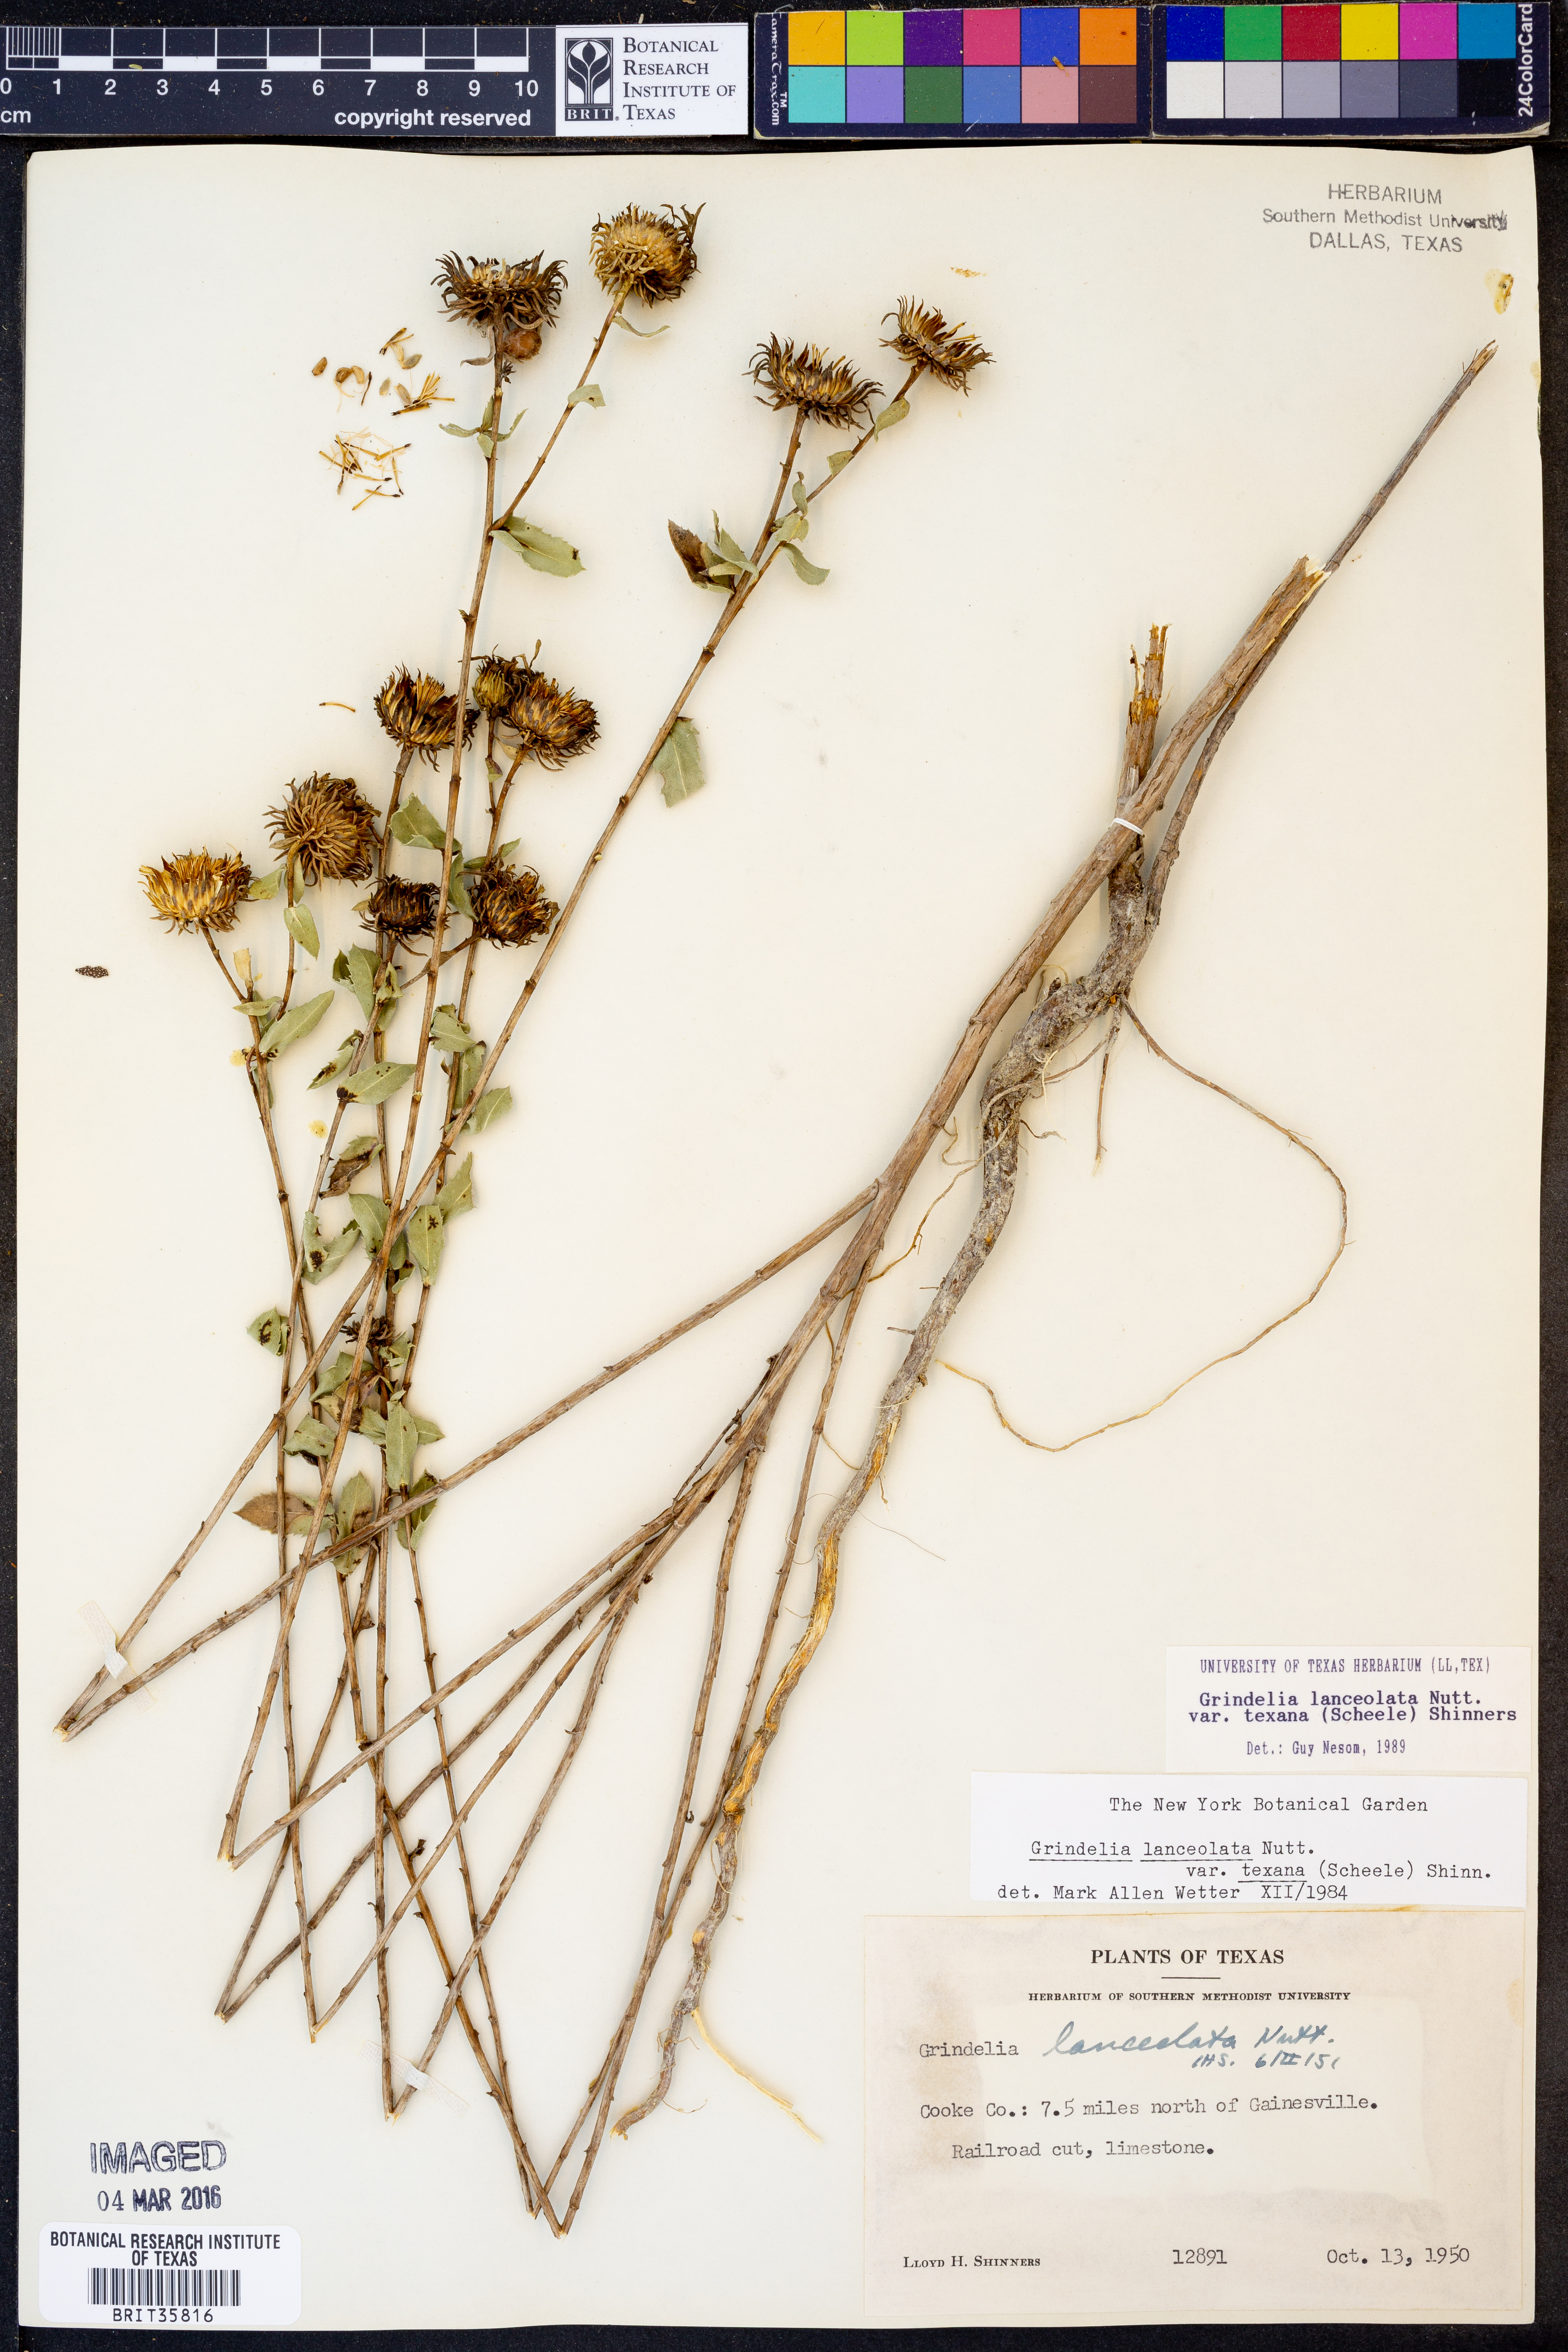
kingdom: Plantae
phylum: Tracheophyta
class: Magnoliopsida
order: Asterales
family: Asteraceae
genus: Grindelia
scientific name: Grindelia texana
